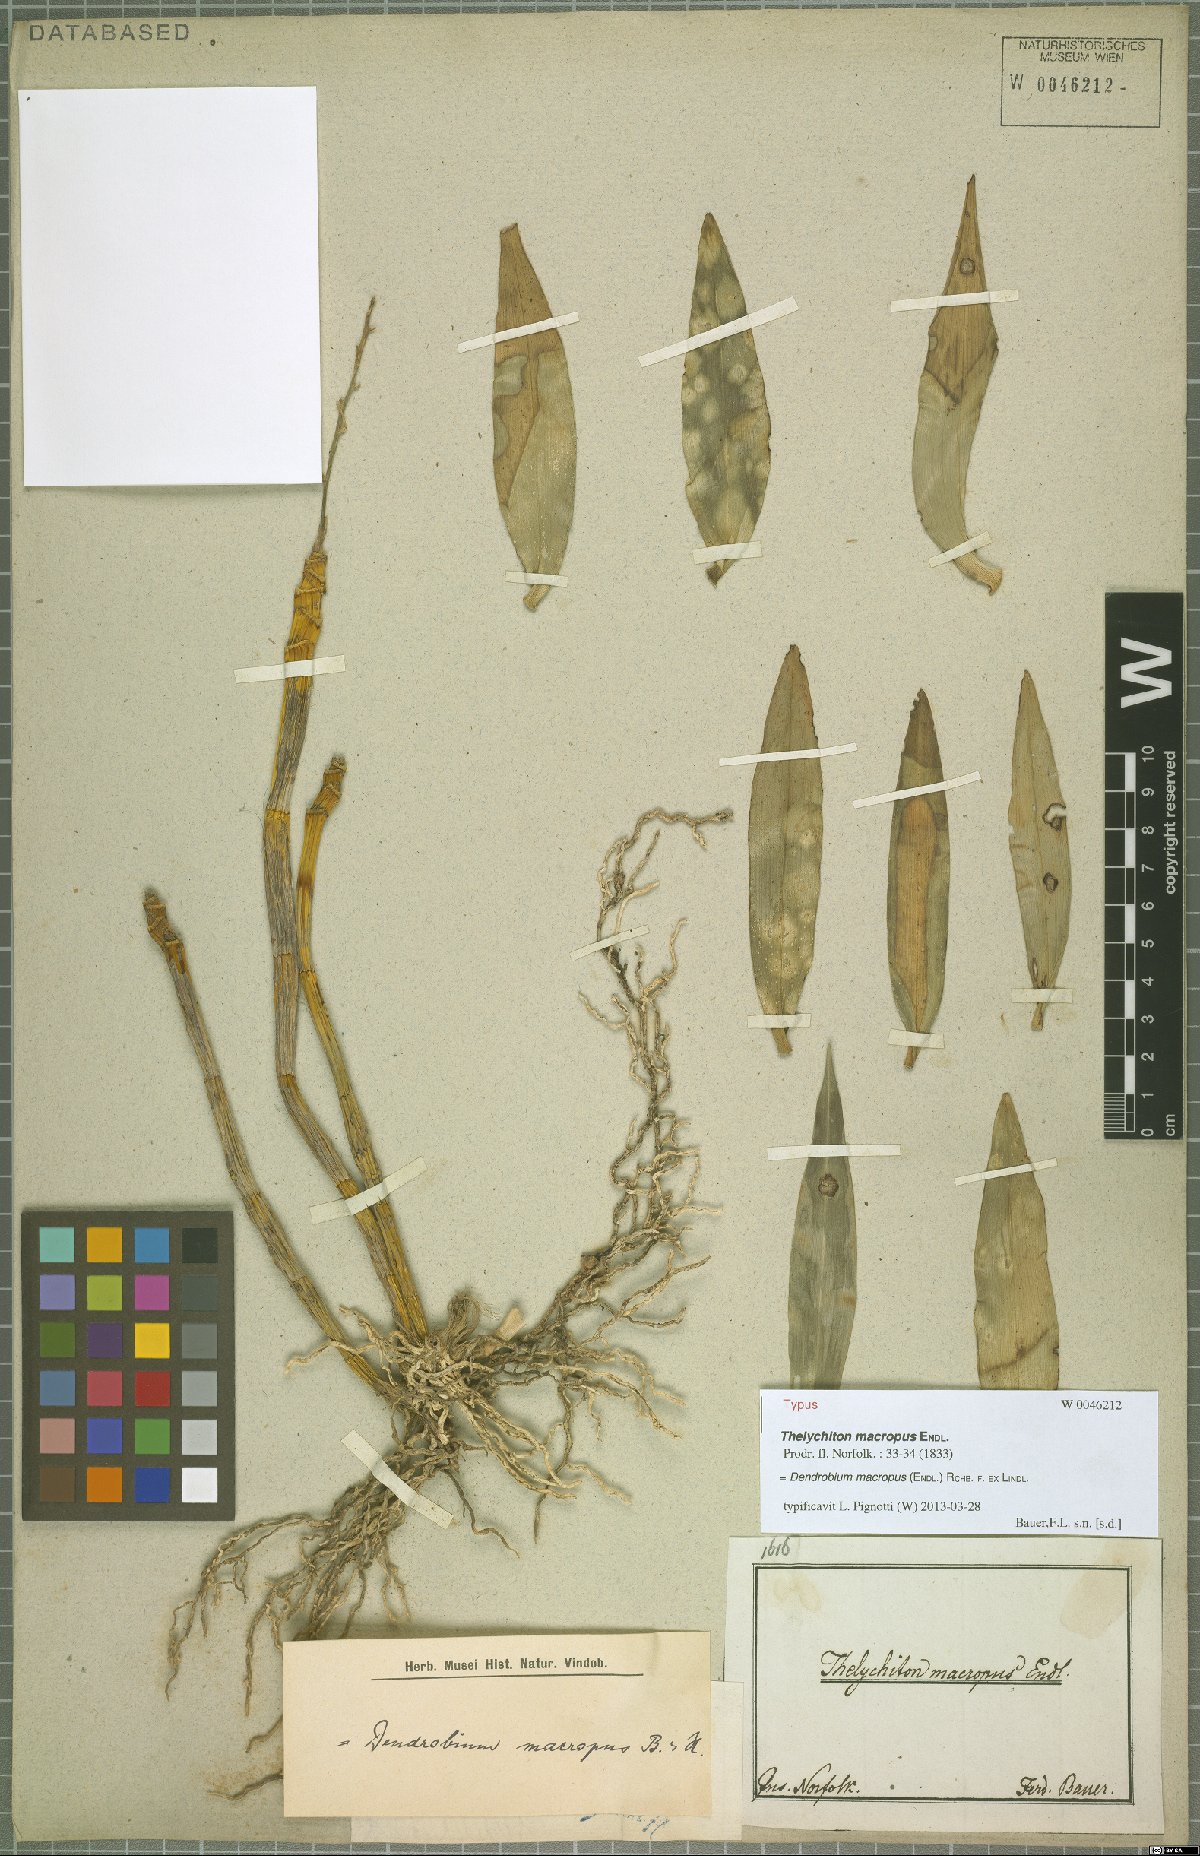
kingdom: Plantae
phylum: Tracheophyta
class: Liliopsida
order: Asparagales
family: Orchidaceae
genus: Dendrobium
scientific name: Dendrobium macropus
